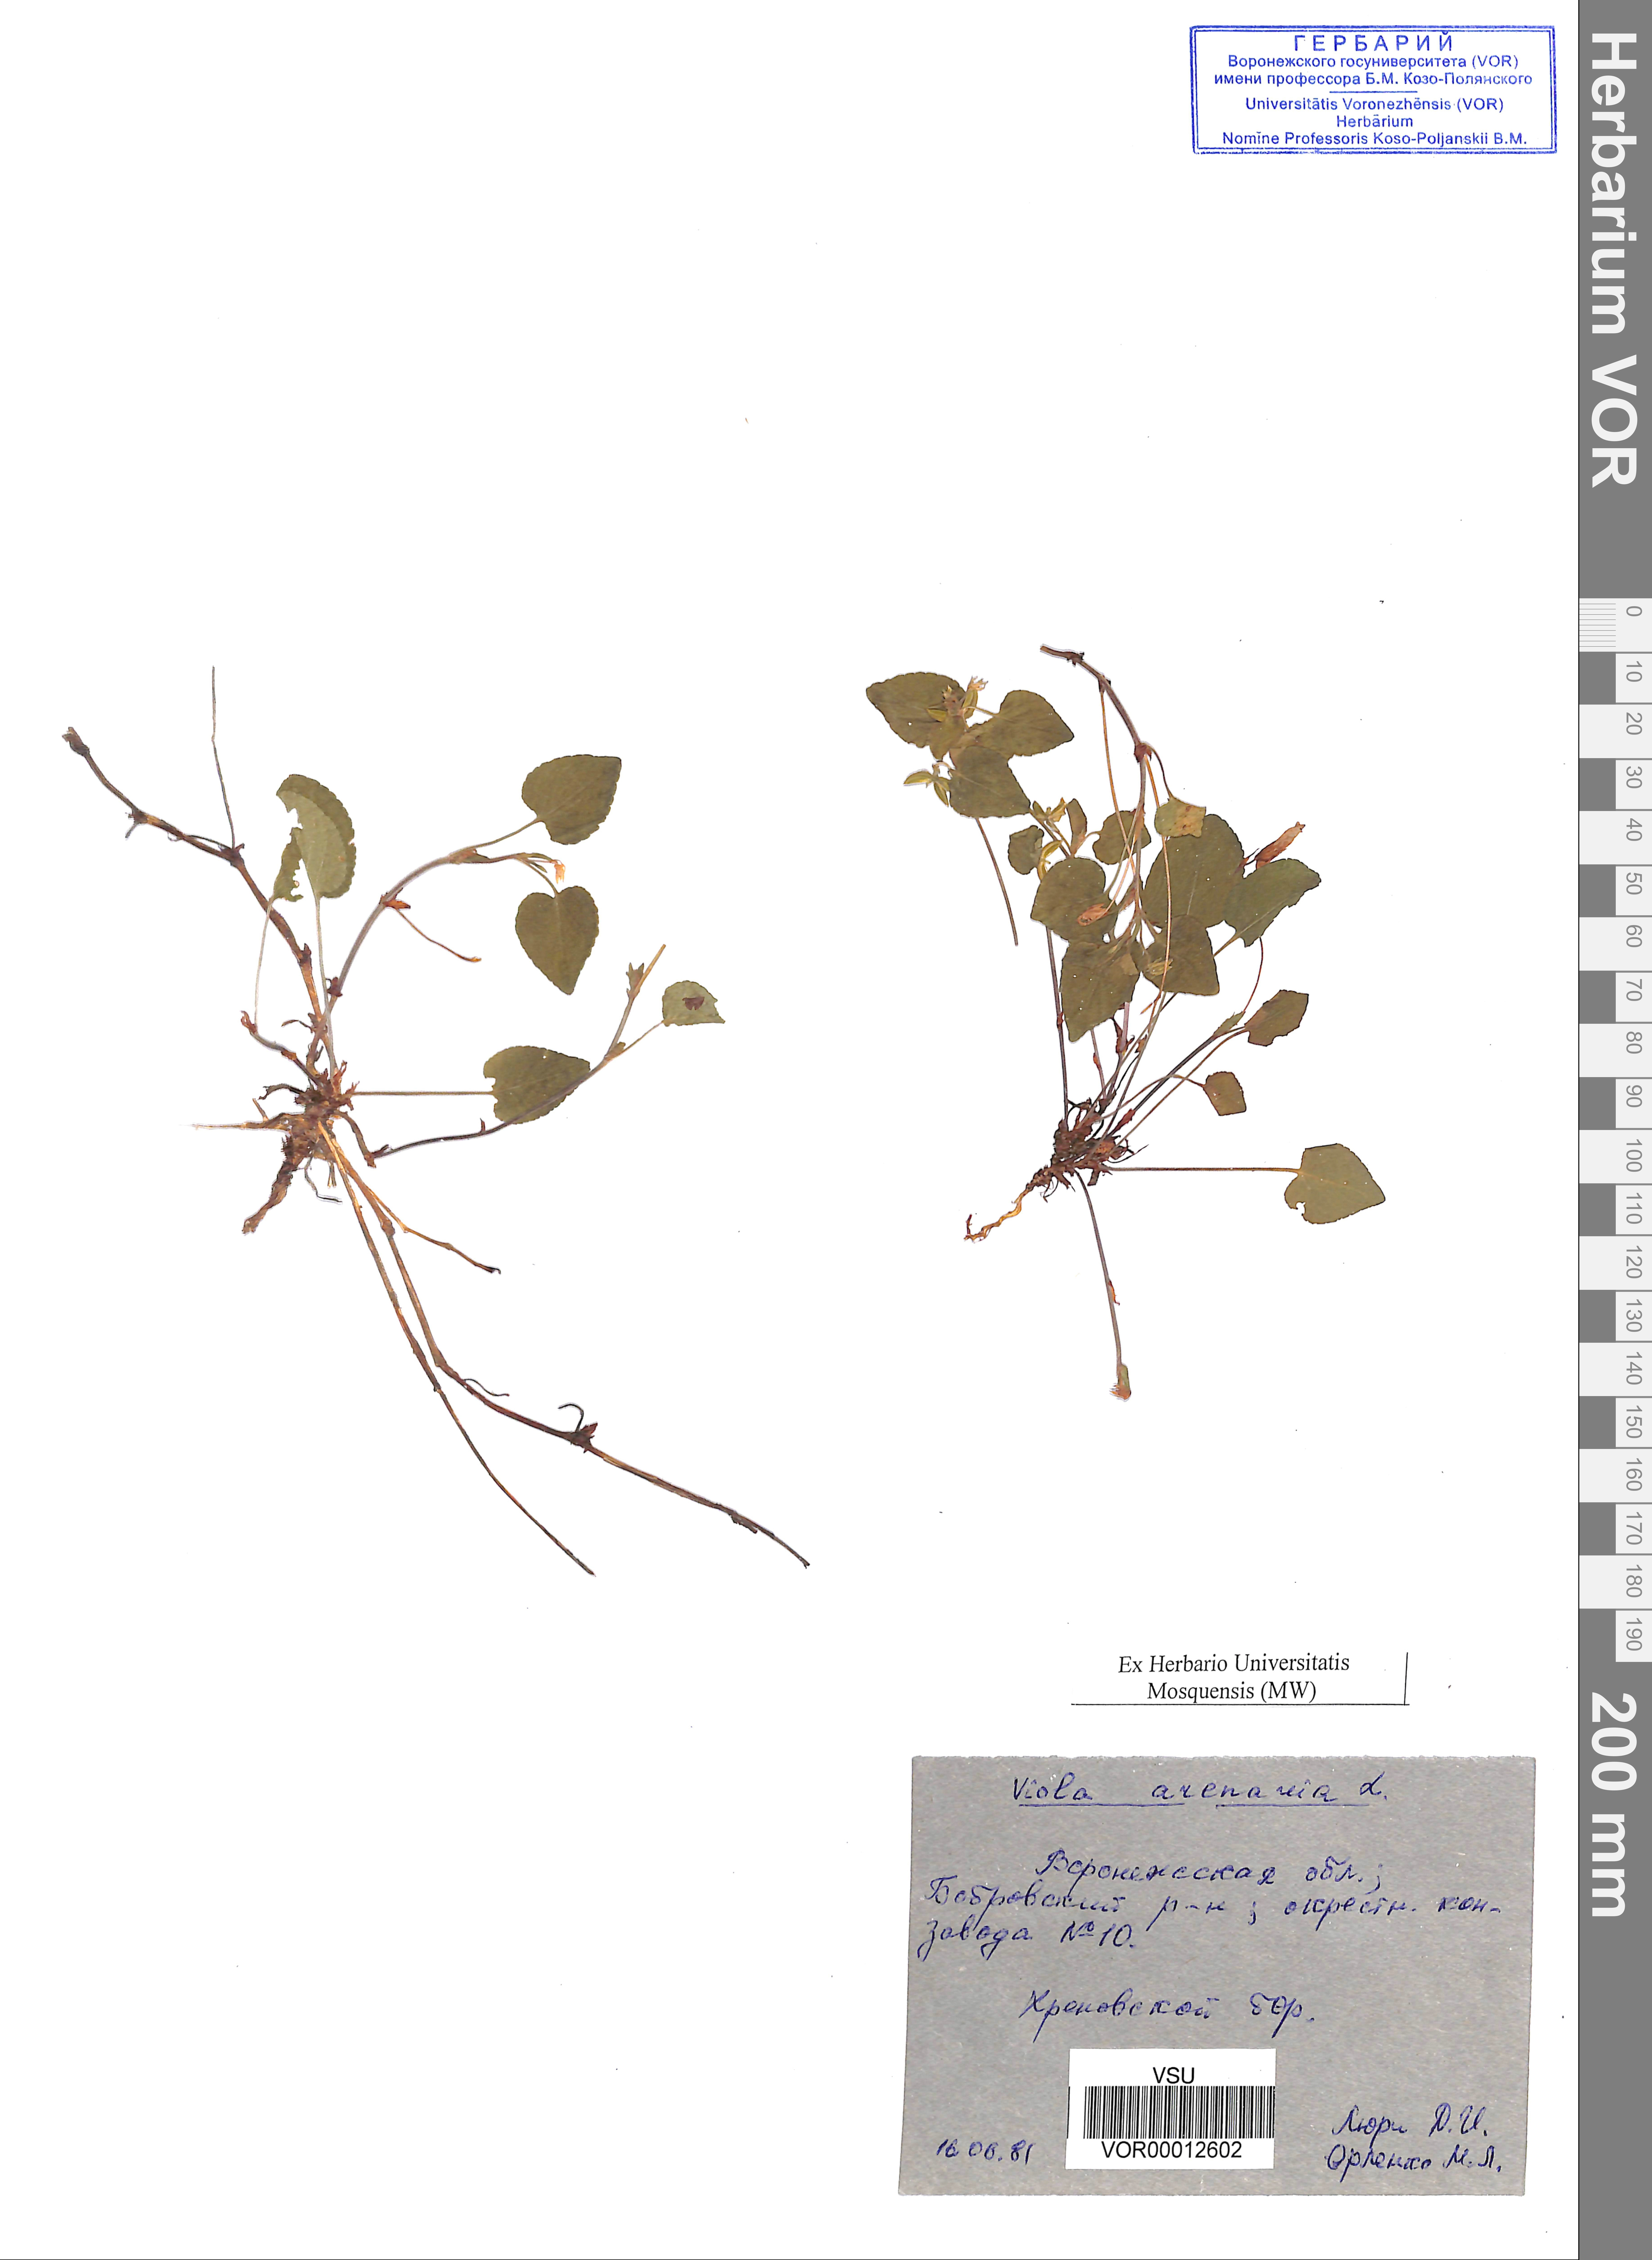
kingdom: Plantae
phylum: Tracheophyta
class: Magnoliopsida
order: Malpighiales
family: Violaceae
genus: Viola
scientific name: Viola rupestris
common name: Teesdale violet
